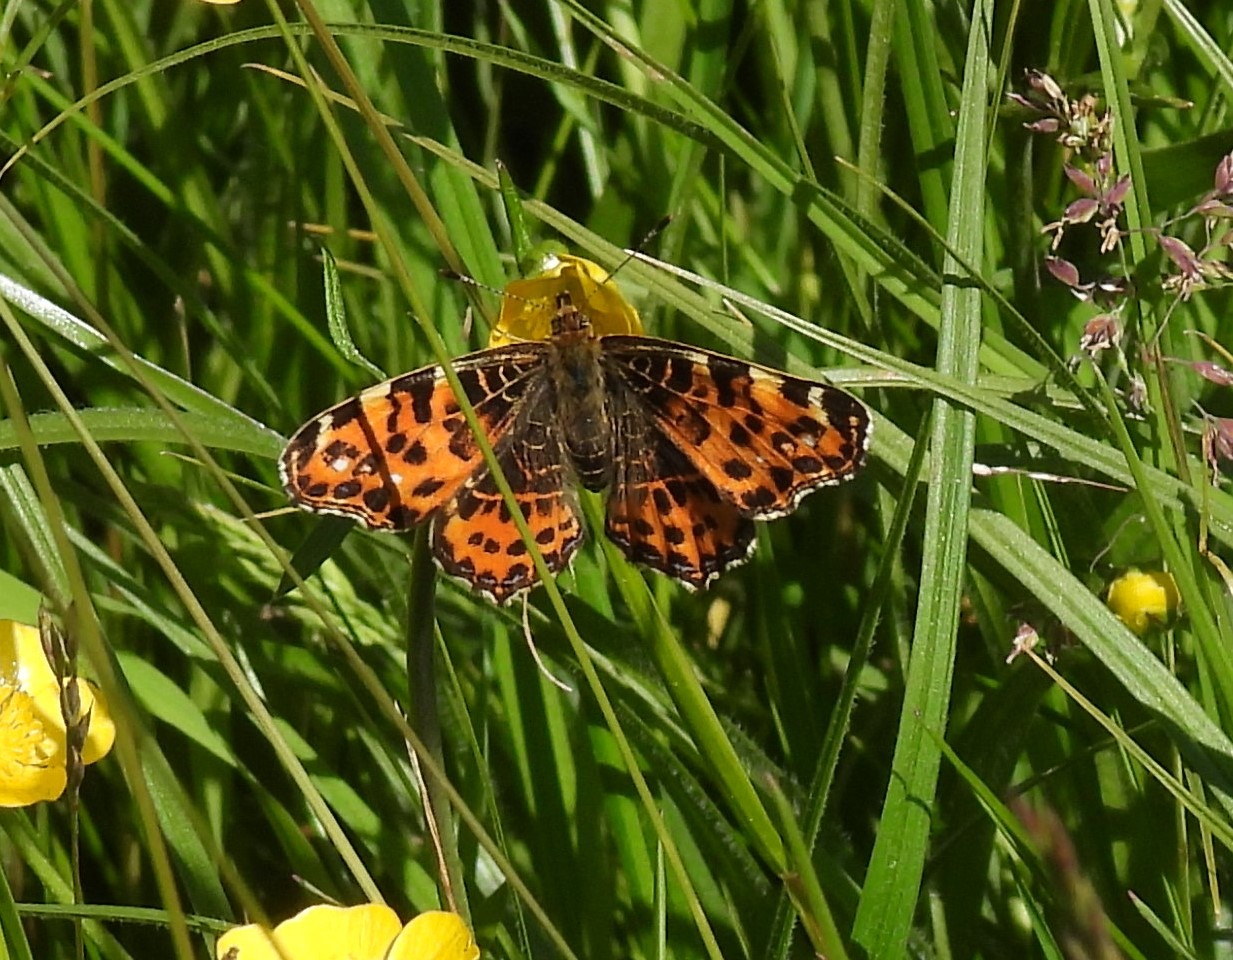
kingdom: Animalia
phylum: Arthropoda
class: Insecta
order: Lepidoptera
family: Nymphalidae
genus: Araschnia
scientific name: Araschnia levana
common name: Nældesommerfugl
